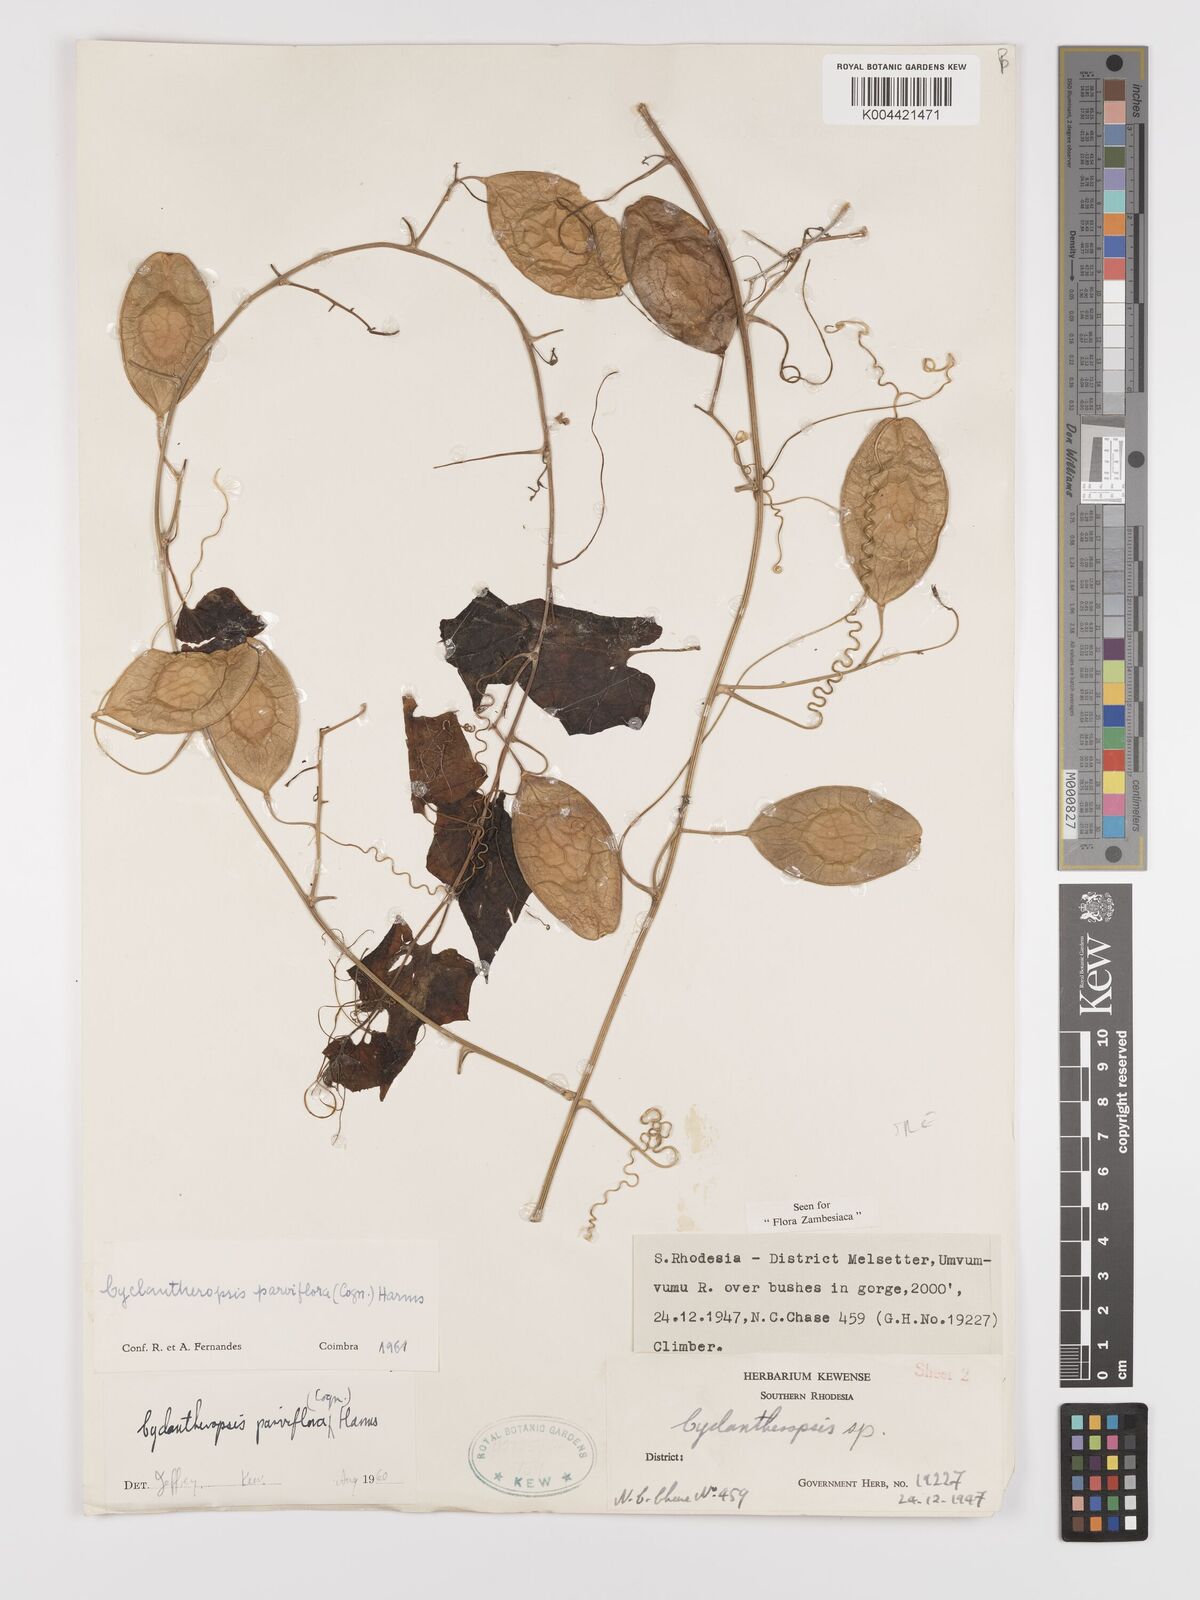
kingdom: Plantae
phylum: Tracheophyta
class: Magnoliopsida
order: Cucurbitales
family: Cucurbitaceae
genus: Cyclantheropsis
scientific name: Cyclantheropsis parviflora
